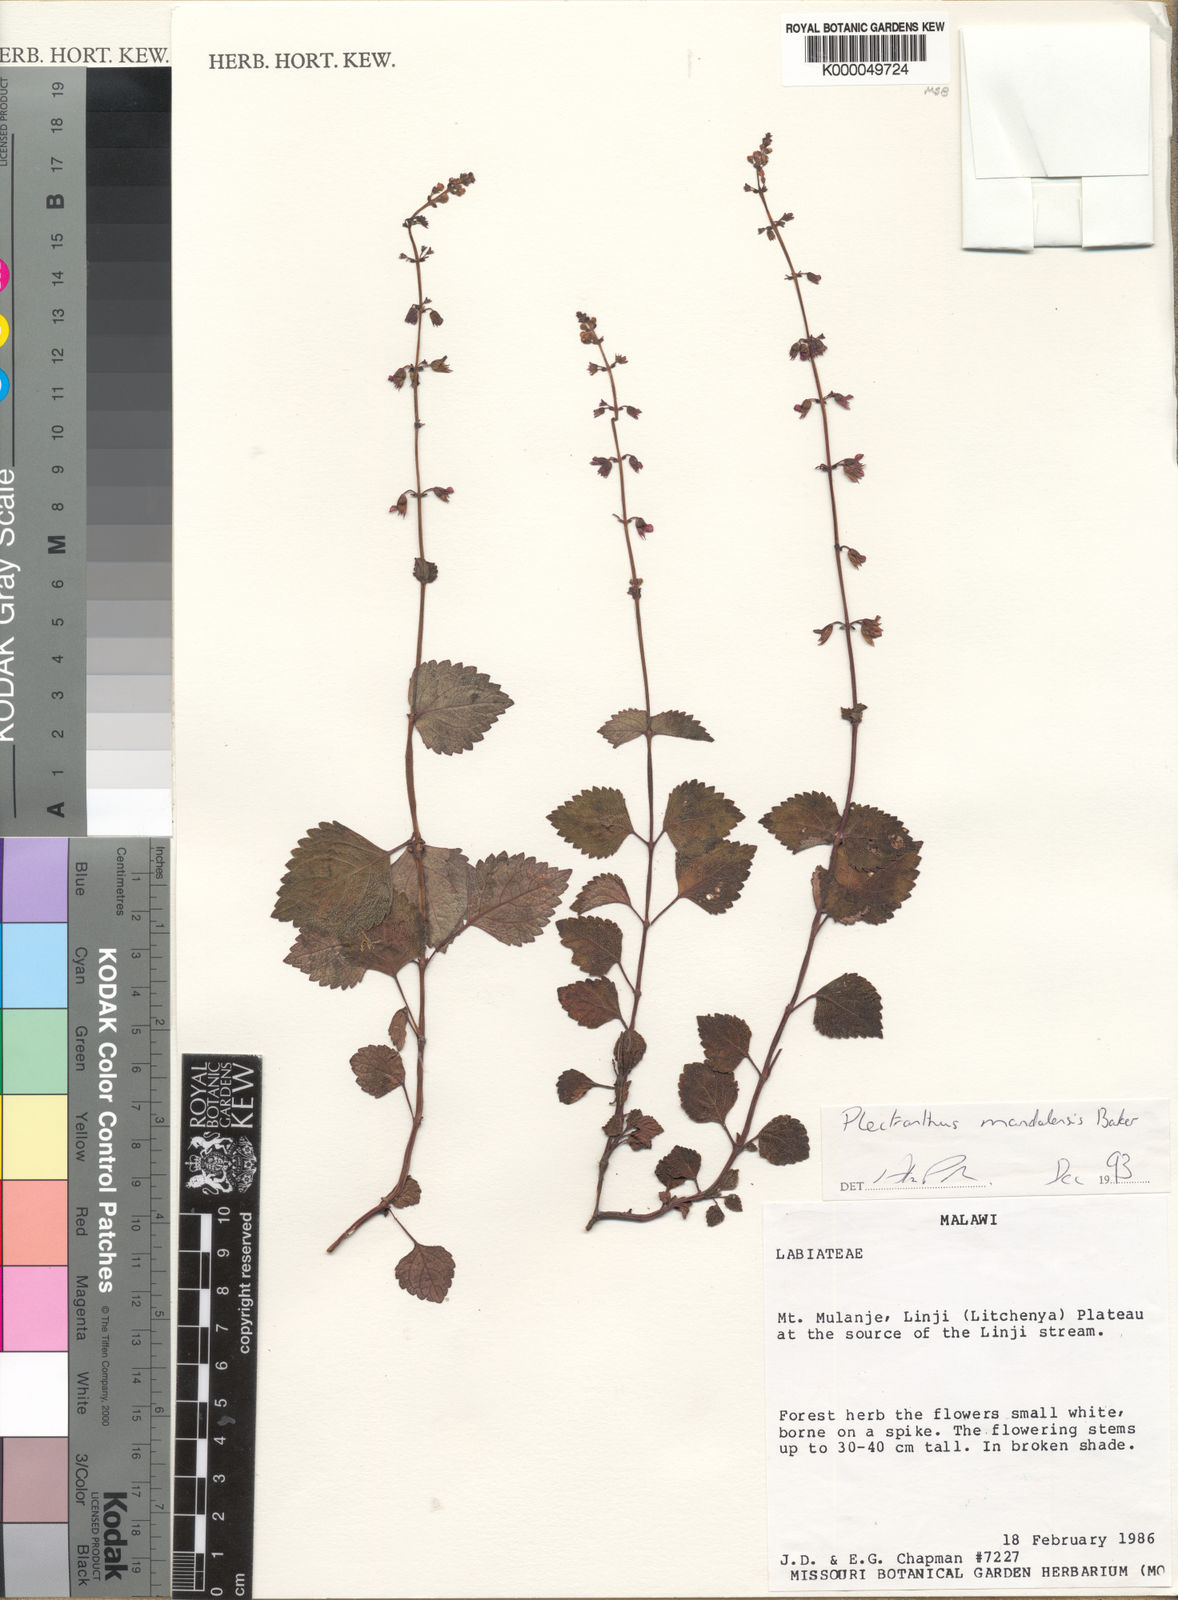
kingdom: Plantae
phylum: Tracheophyta
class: Magnoliopsida
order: Lamiales
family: Lamiaceae
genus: Plectranthus
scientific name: Plectranthus mandalensis
